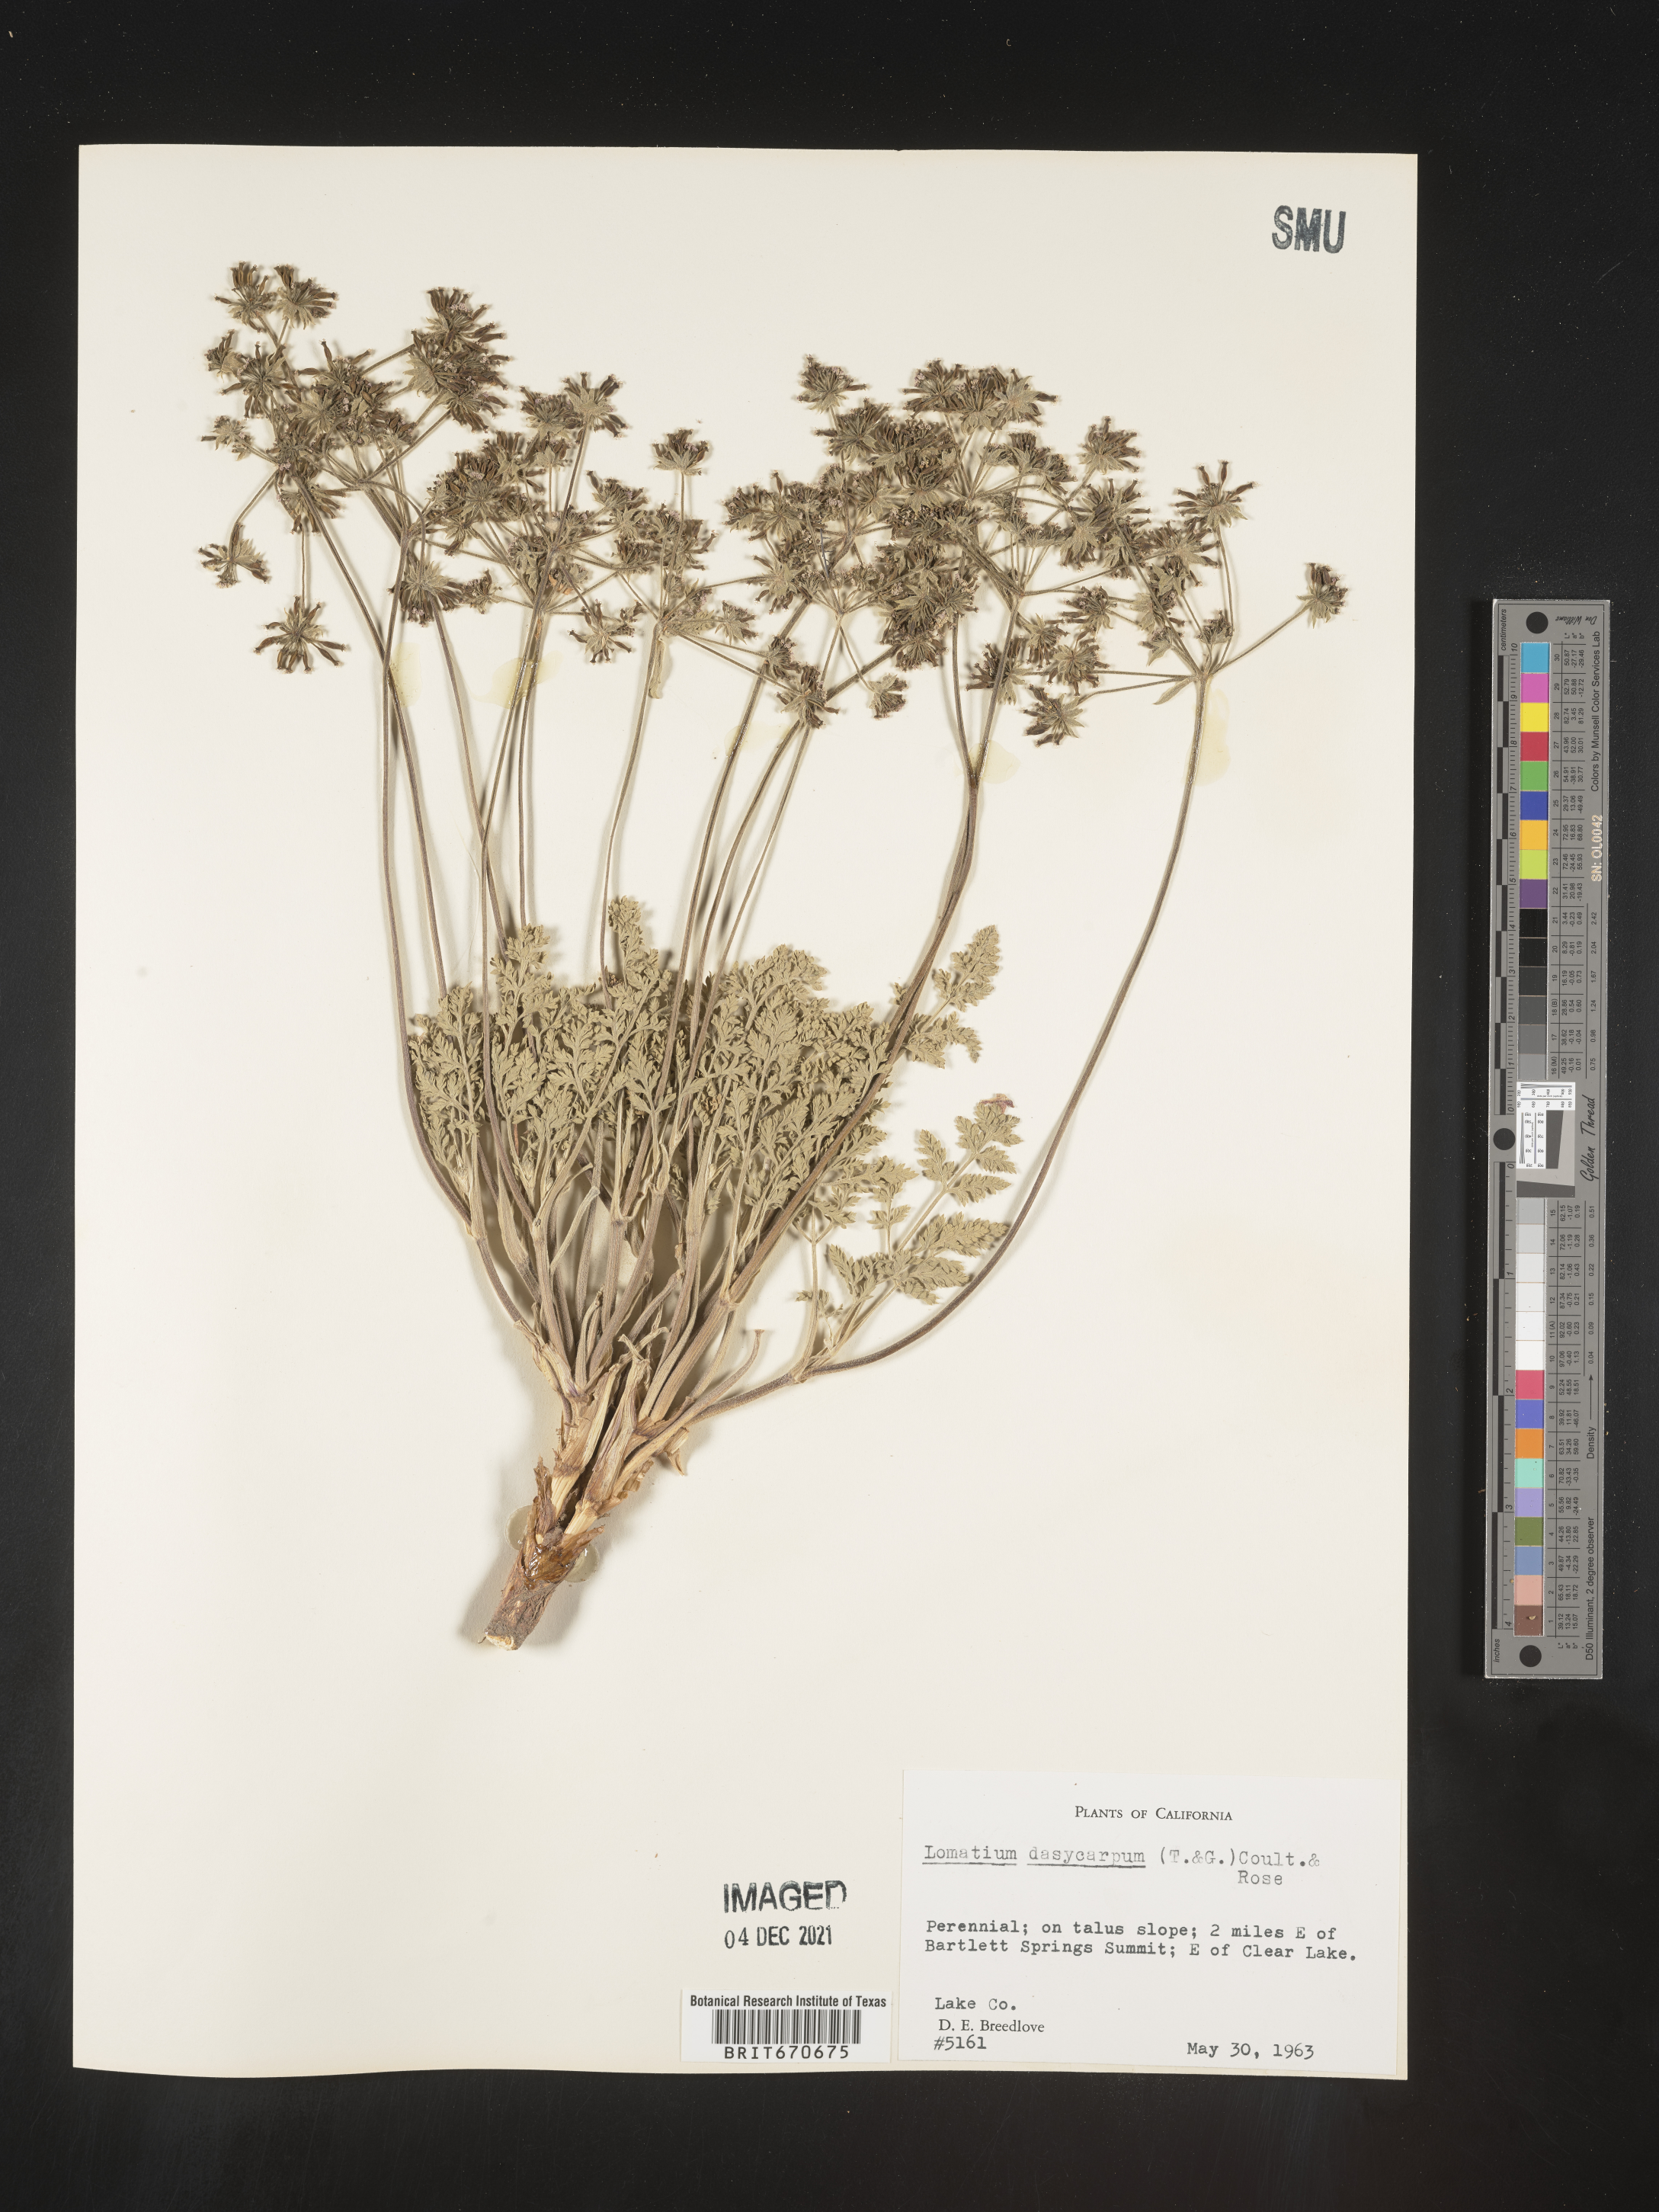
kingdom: Plantae
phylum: Tracheophyta
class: Magnoliopsida
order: Apiales
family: Apiaceae
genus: Lomatium
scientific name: Lomatium dasycarpum
